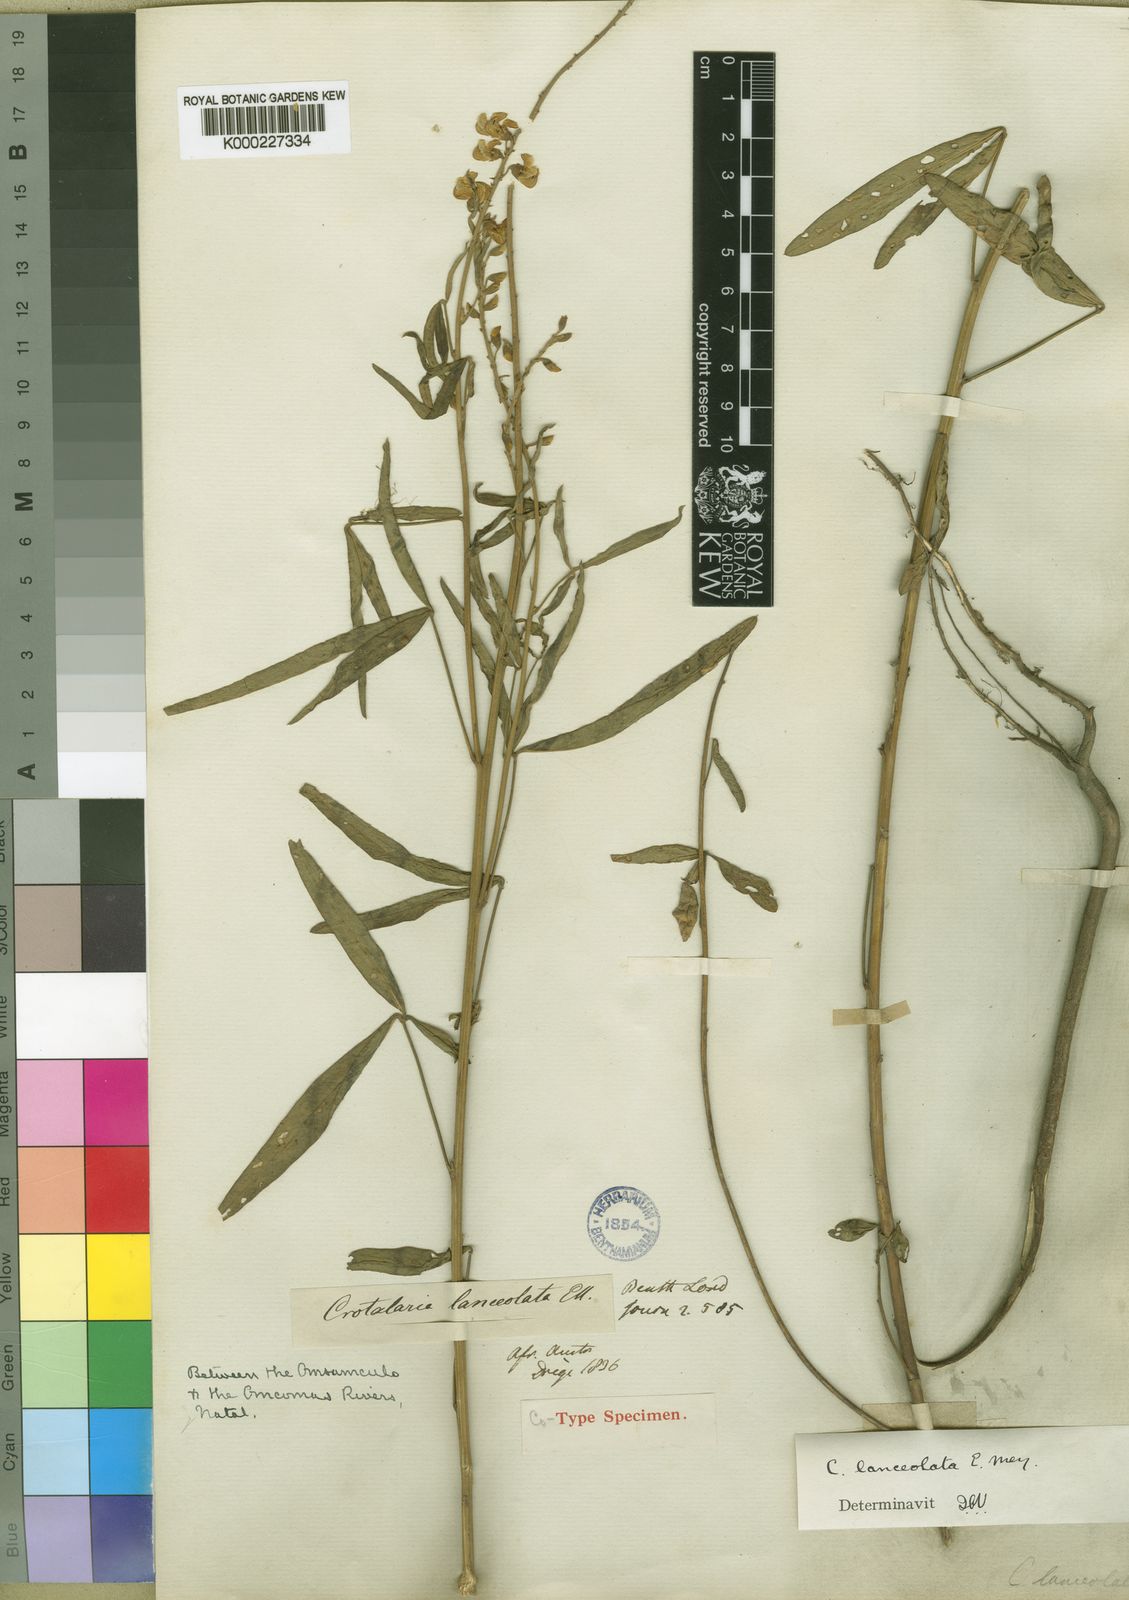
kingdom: Plantae
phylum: Tracheophyta
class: Magnoliopsida
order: Fabales
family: Fabaceae
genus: Crotalaria
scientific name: Crotalaria lanceolata
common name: Lanceleaf rattlebox
